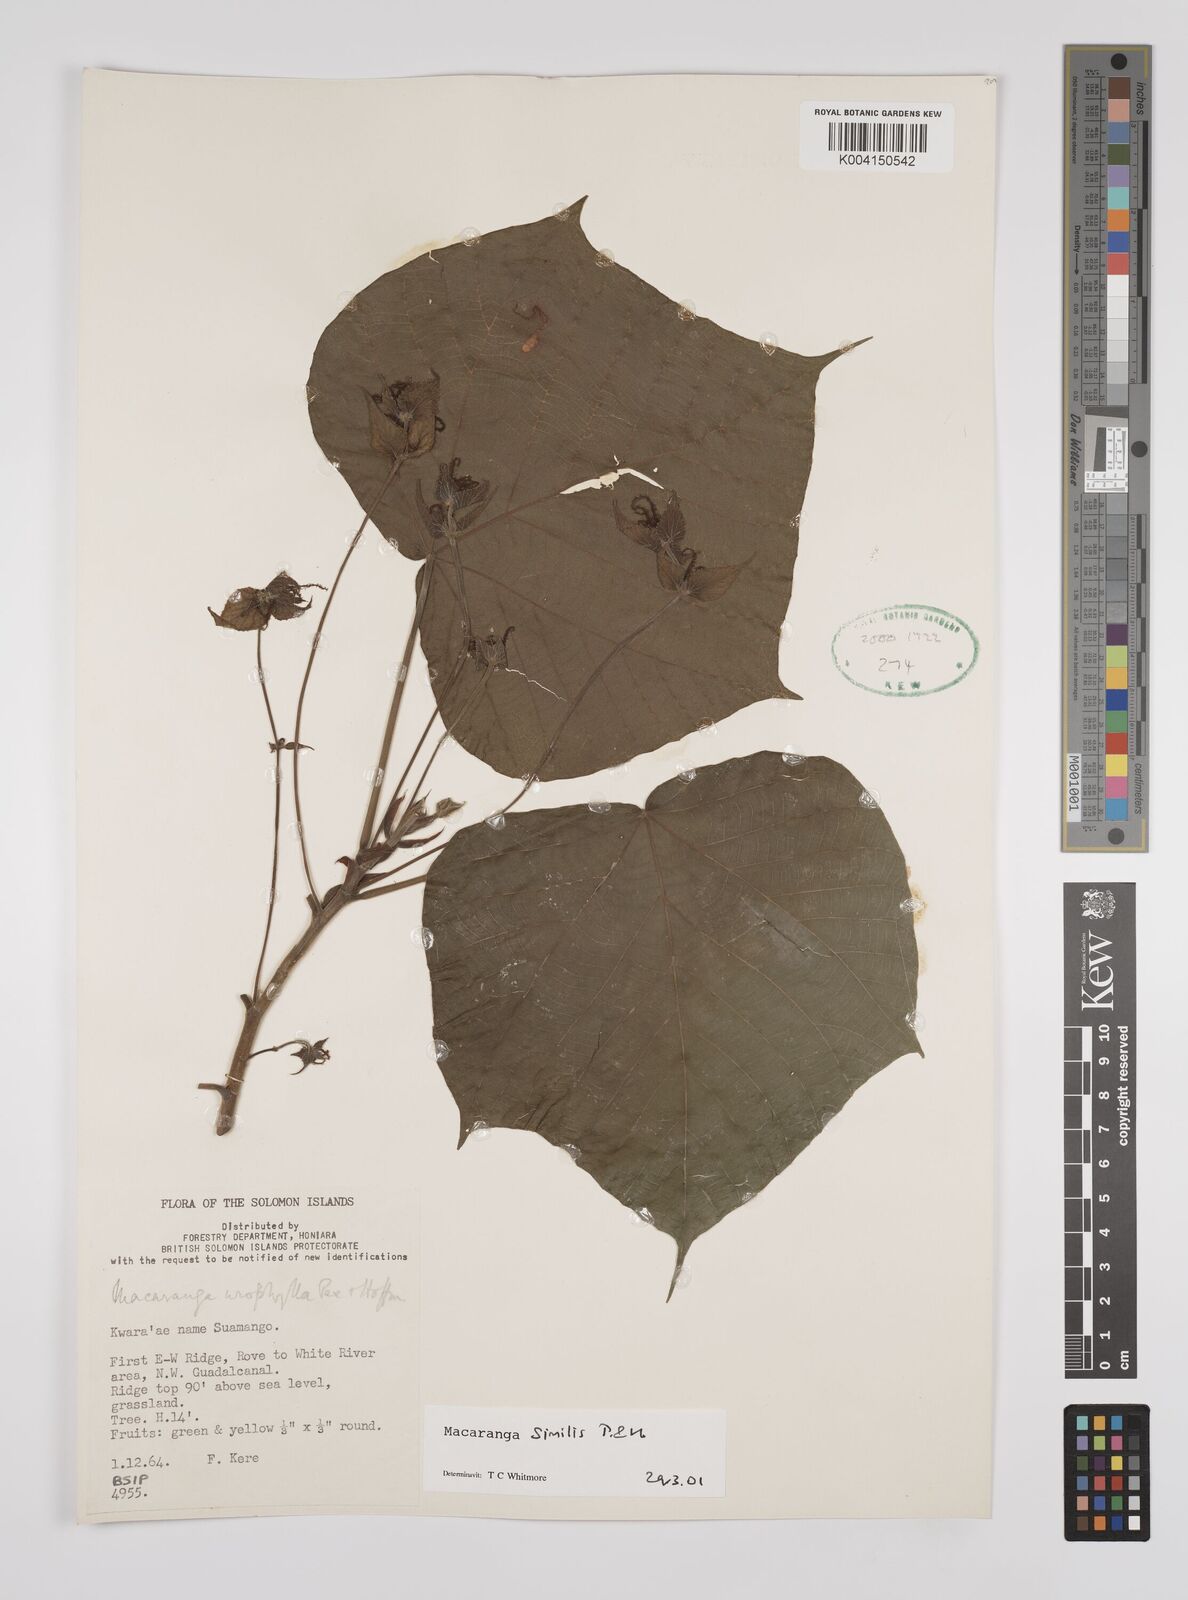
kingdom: Plantae
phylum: Tracheophyta
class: Magnoliopsida
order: Malpighiales
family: Euphorbiaceae
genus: Macaranga
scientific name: Macaranga similis
